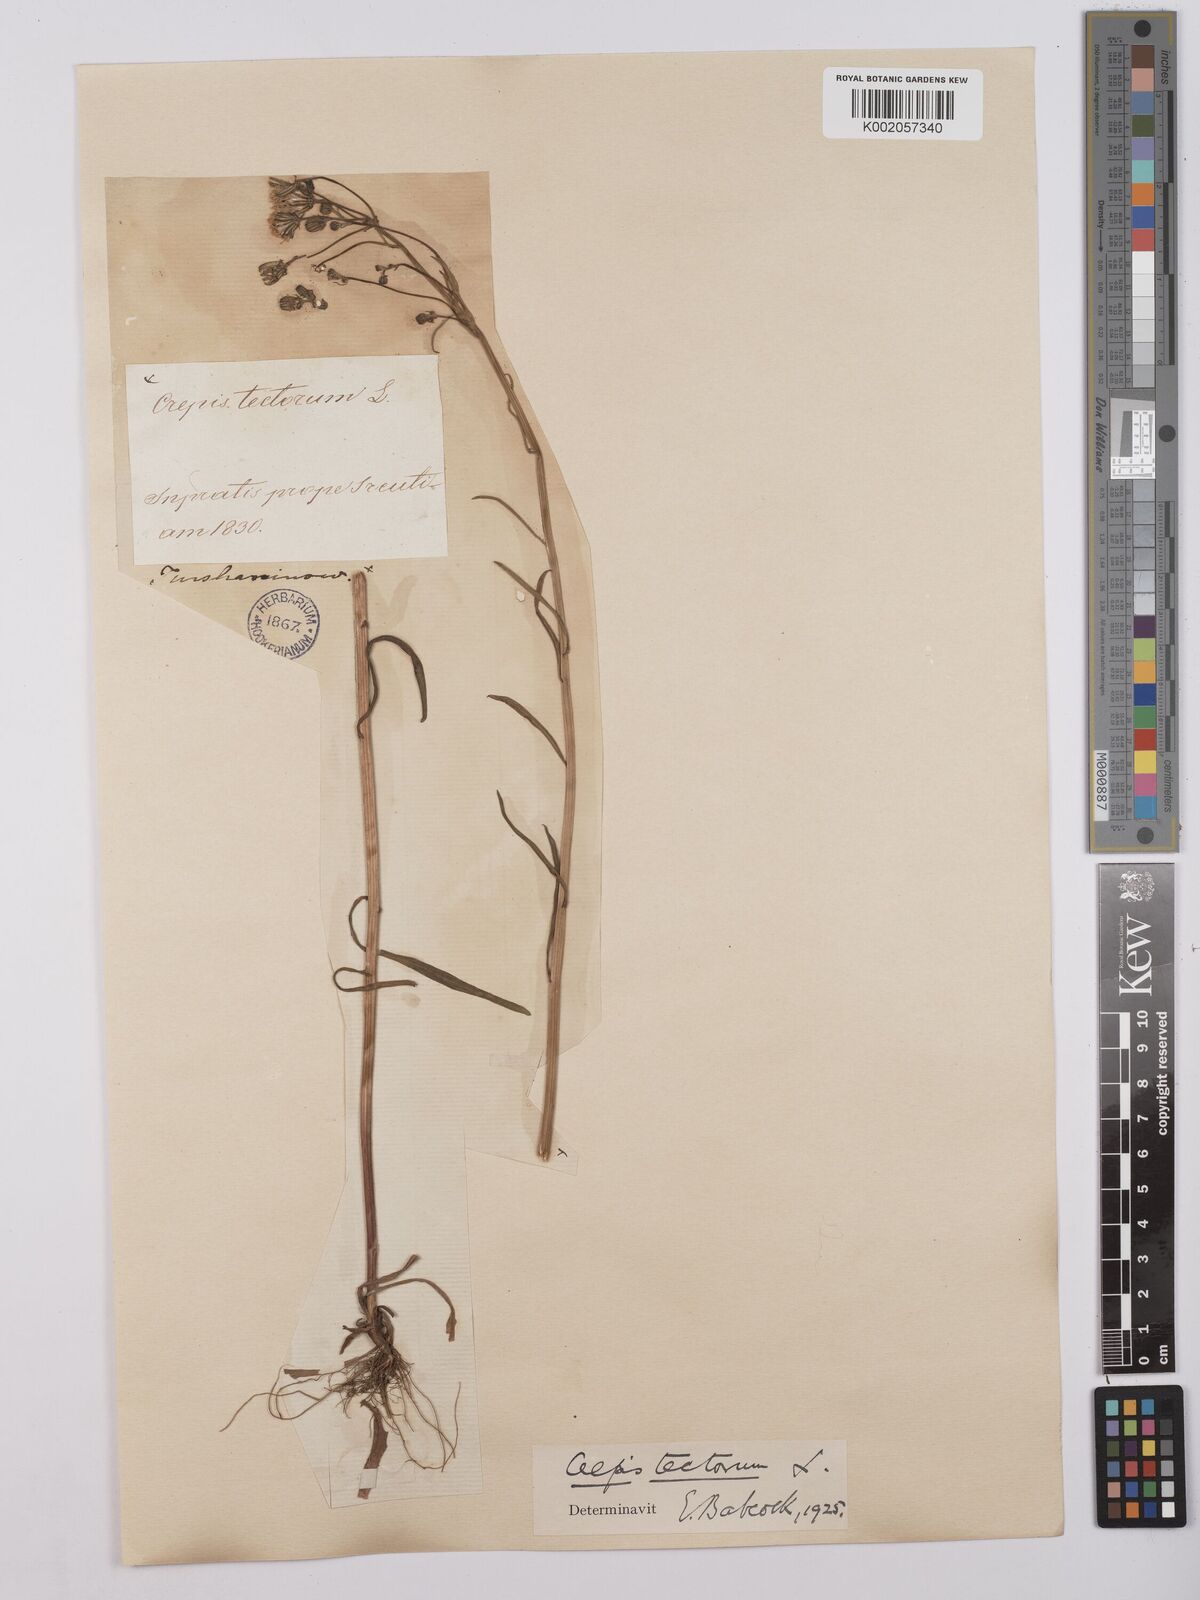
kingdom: Plantae
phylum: Tracheophyta
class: Magnoliopsida
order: Asterales
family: Asteraceae
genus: Crepis
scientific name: Crepis tectorum
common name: Narrow-leaved hawk's-beard
